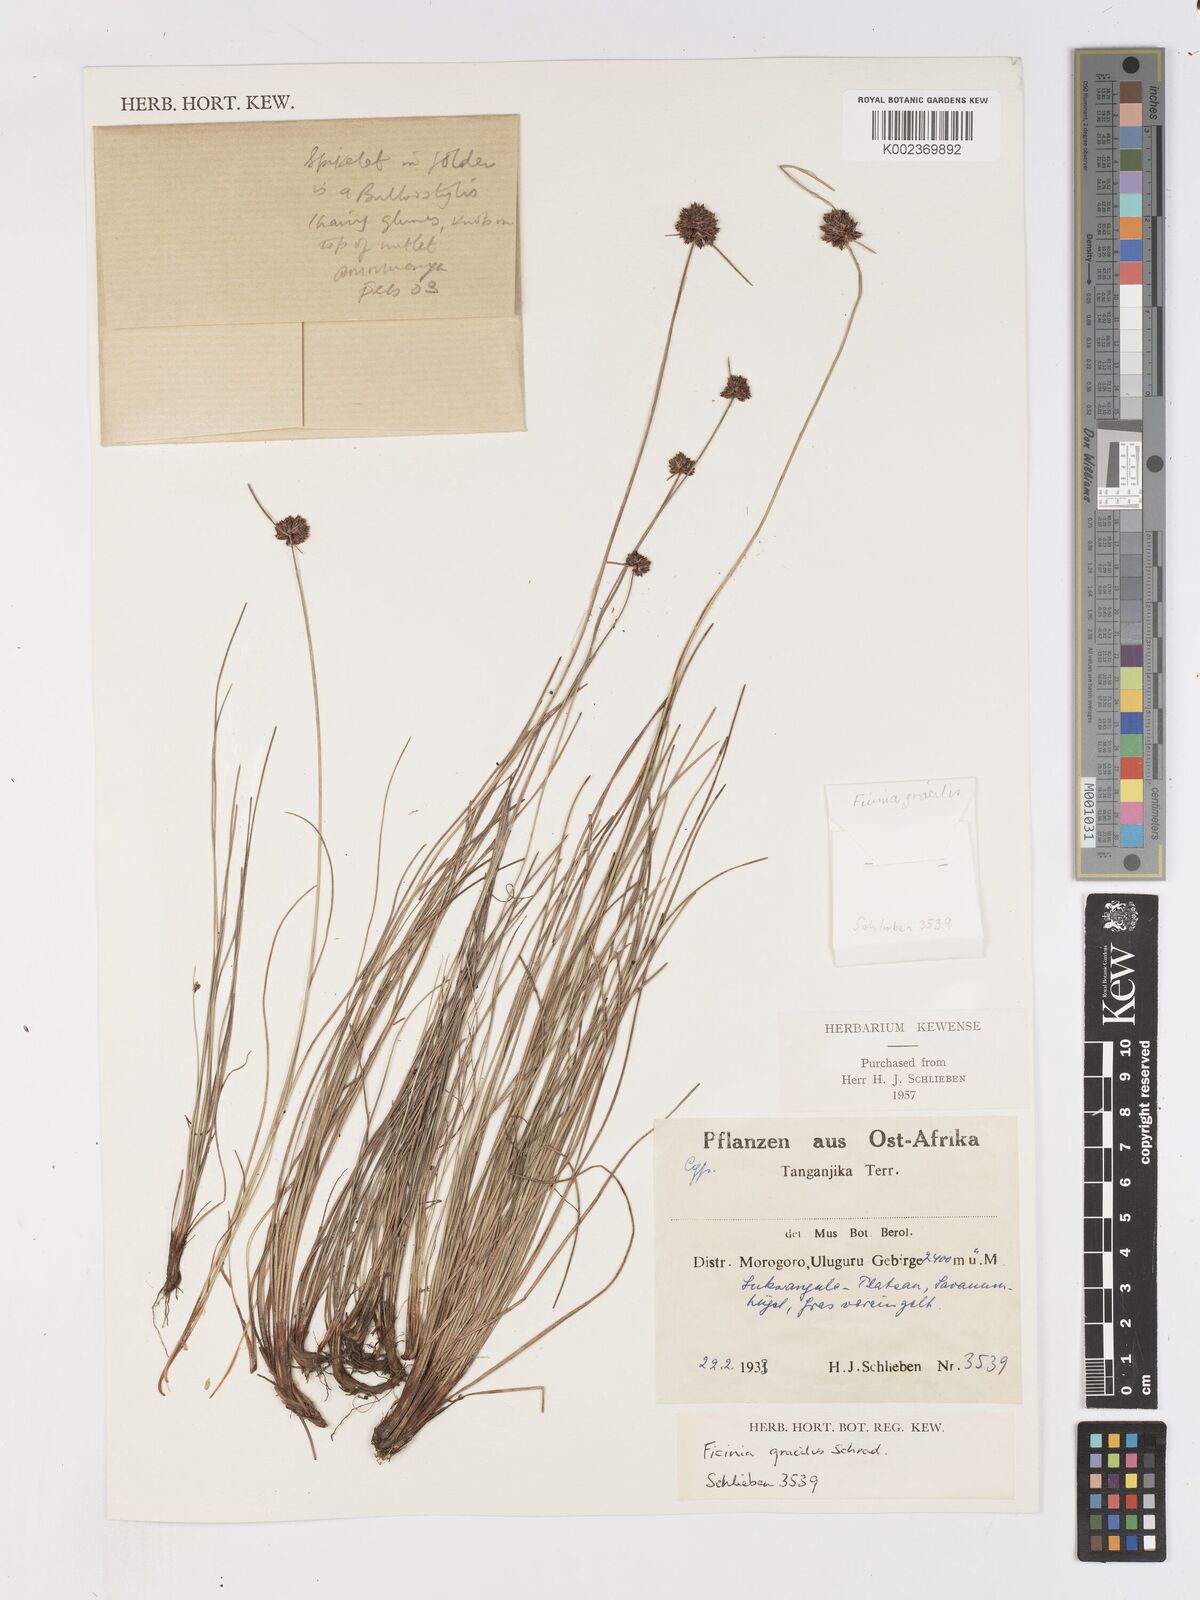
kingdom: Plantae
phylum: Tracheophyta
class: Liliopsida
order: Poales
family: Cyperaceae
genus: Ficinia
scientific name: Ficinia gracilis
